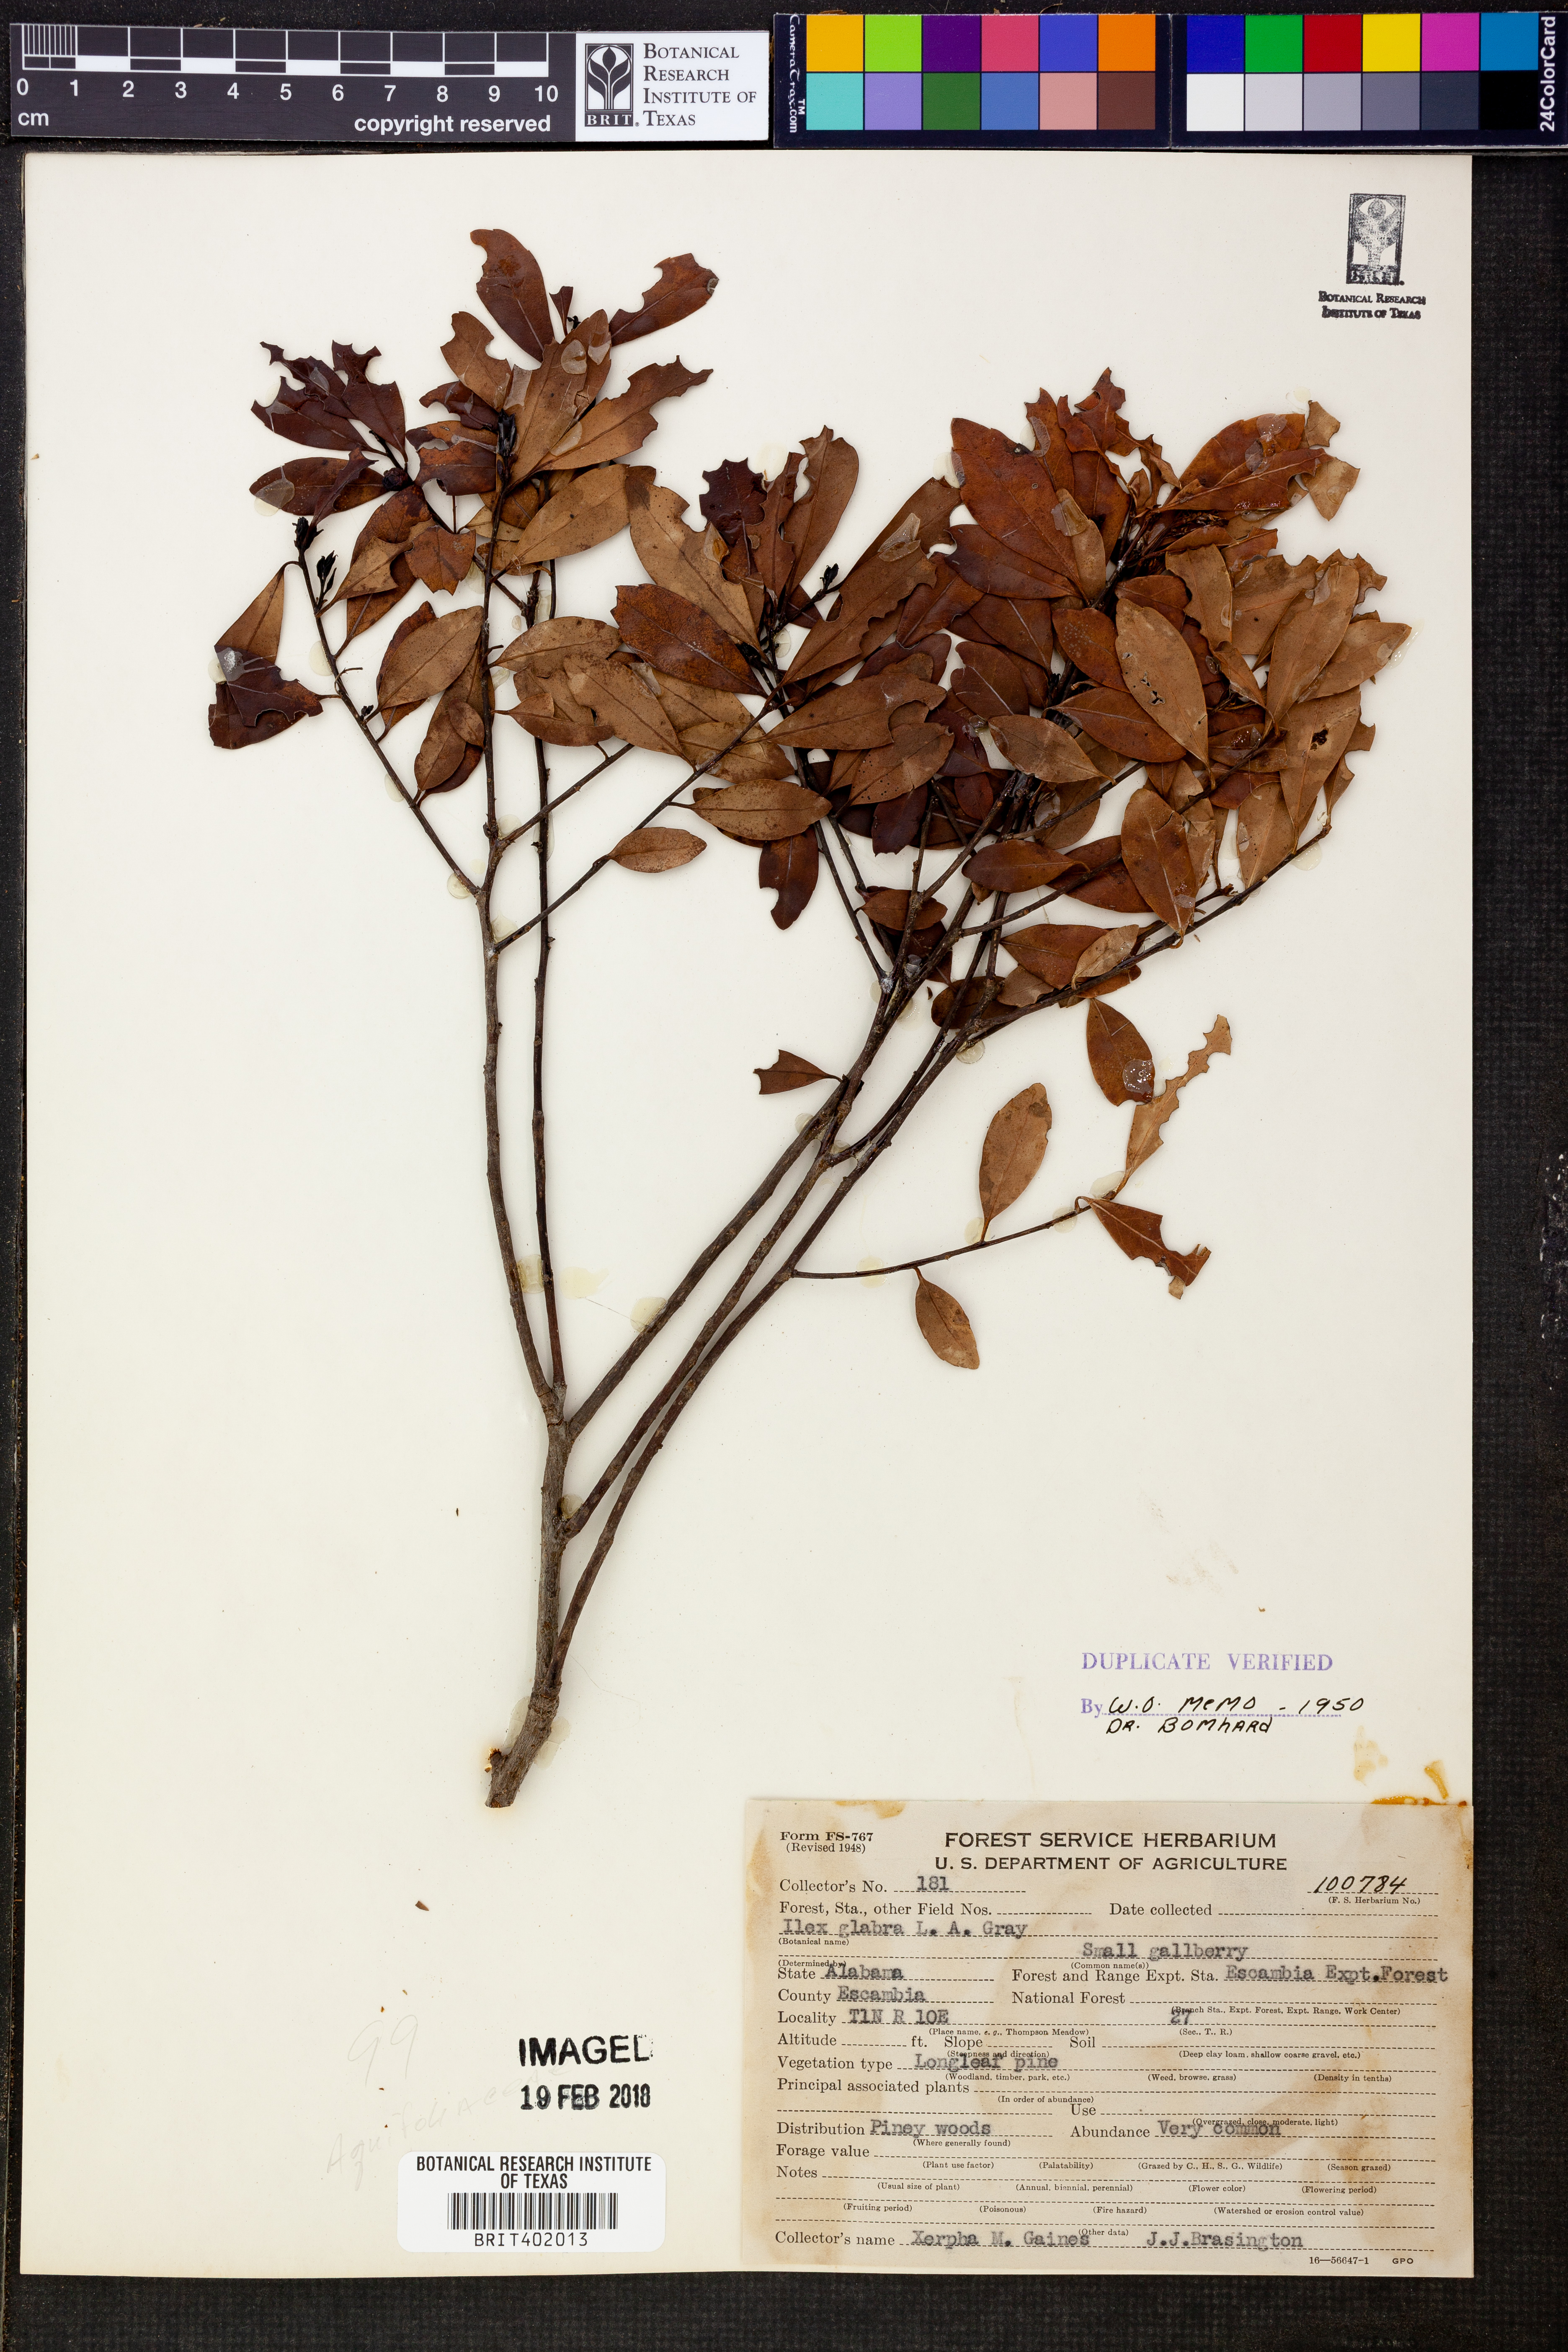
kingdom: Plantae
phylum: Tracheophyta
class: Magnoliopsida
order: Aquifoliales
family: Aquifoliaceae
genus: Ilex
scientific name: Ilex glabra
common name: Bitter gallberry
